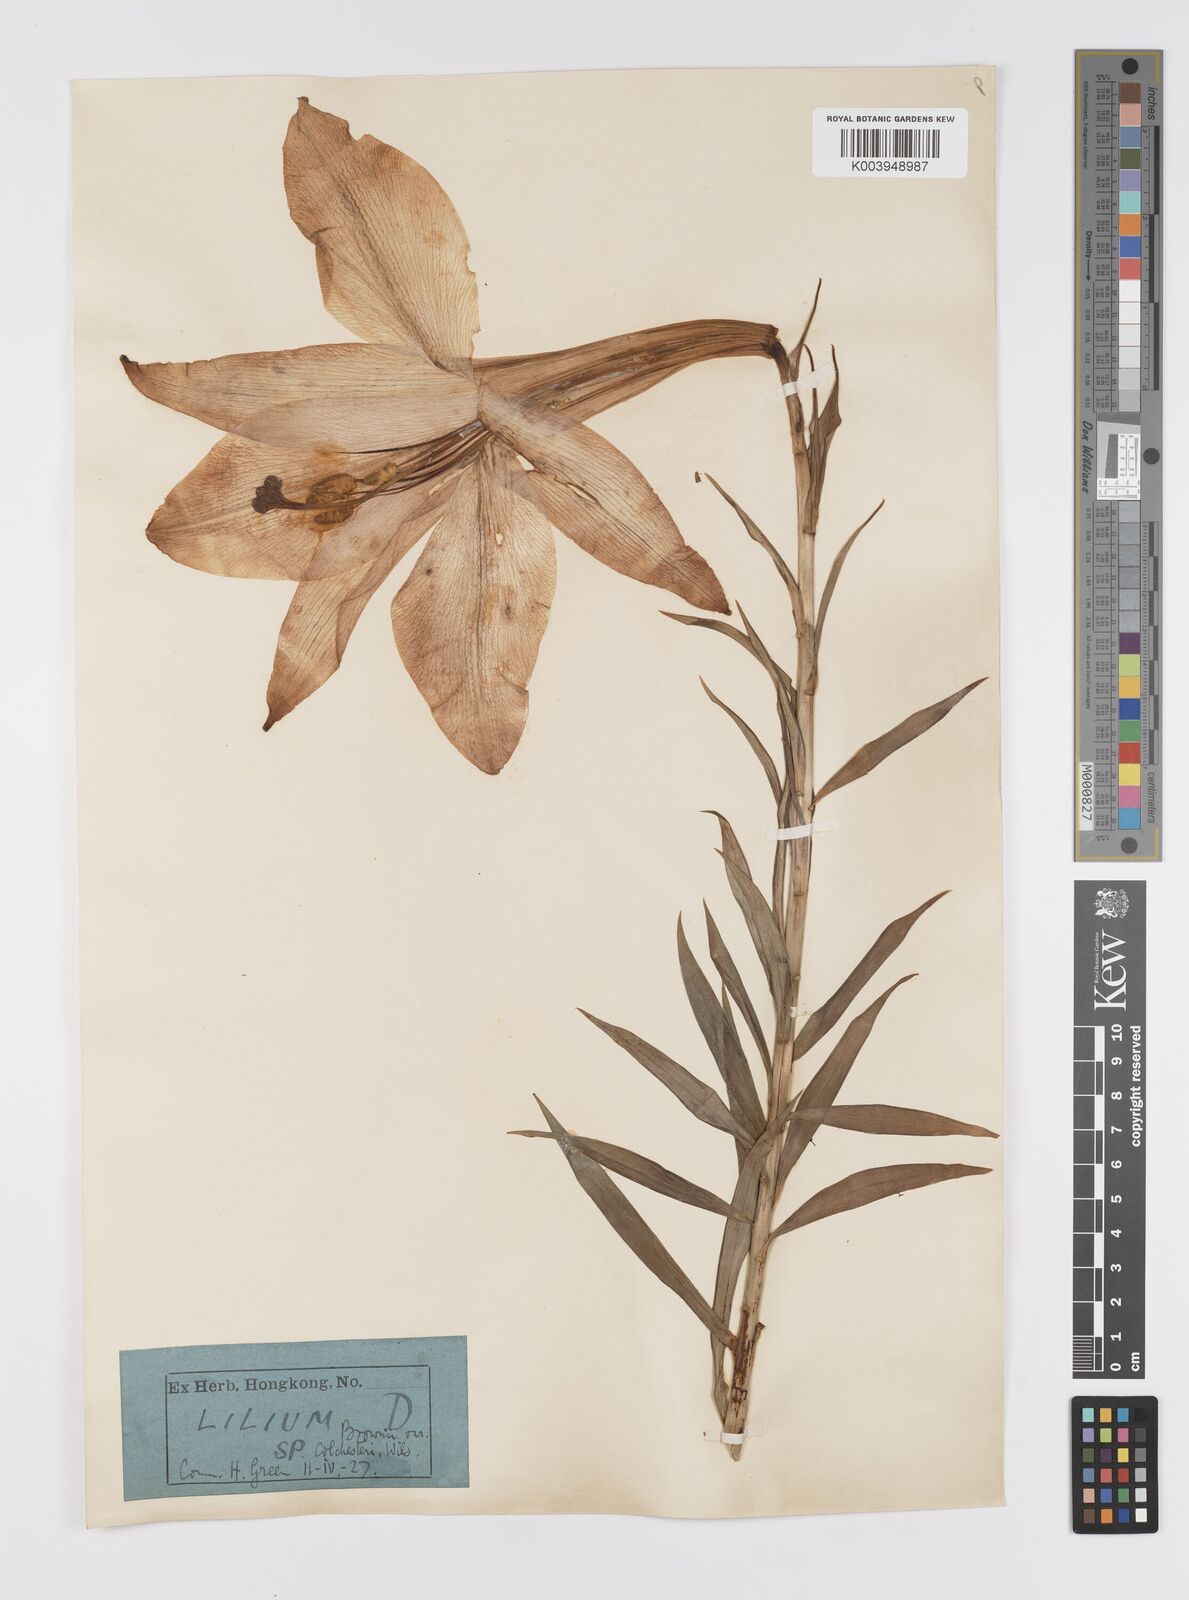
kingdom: Plantae
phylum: Tracheophyta
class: Liliopsida
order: Liliales
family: Liliaceae
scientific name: Liliaceae
